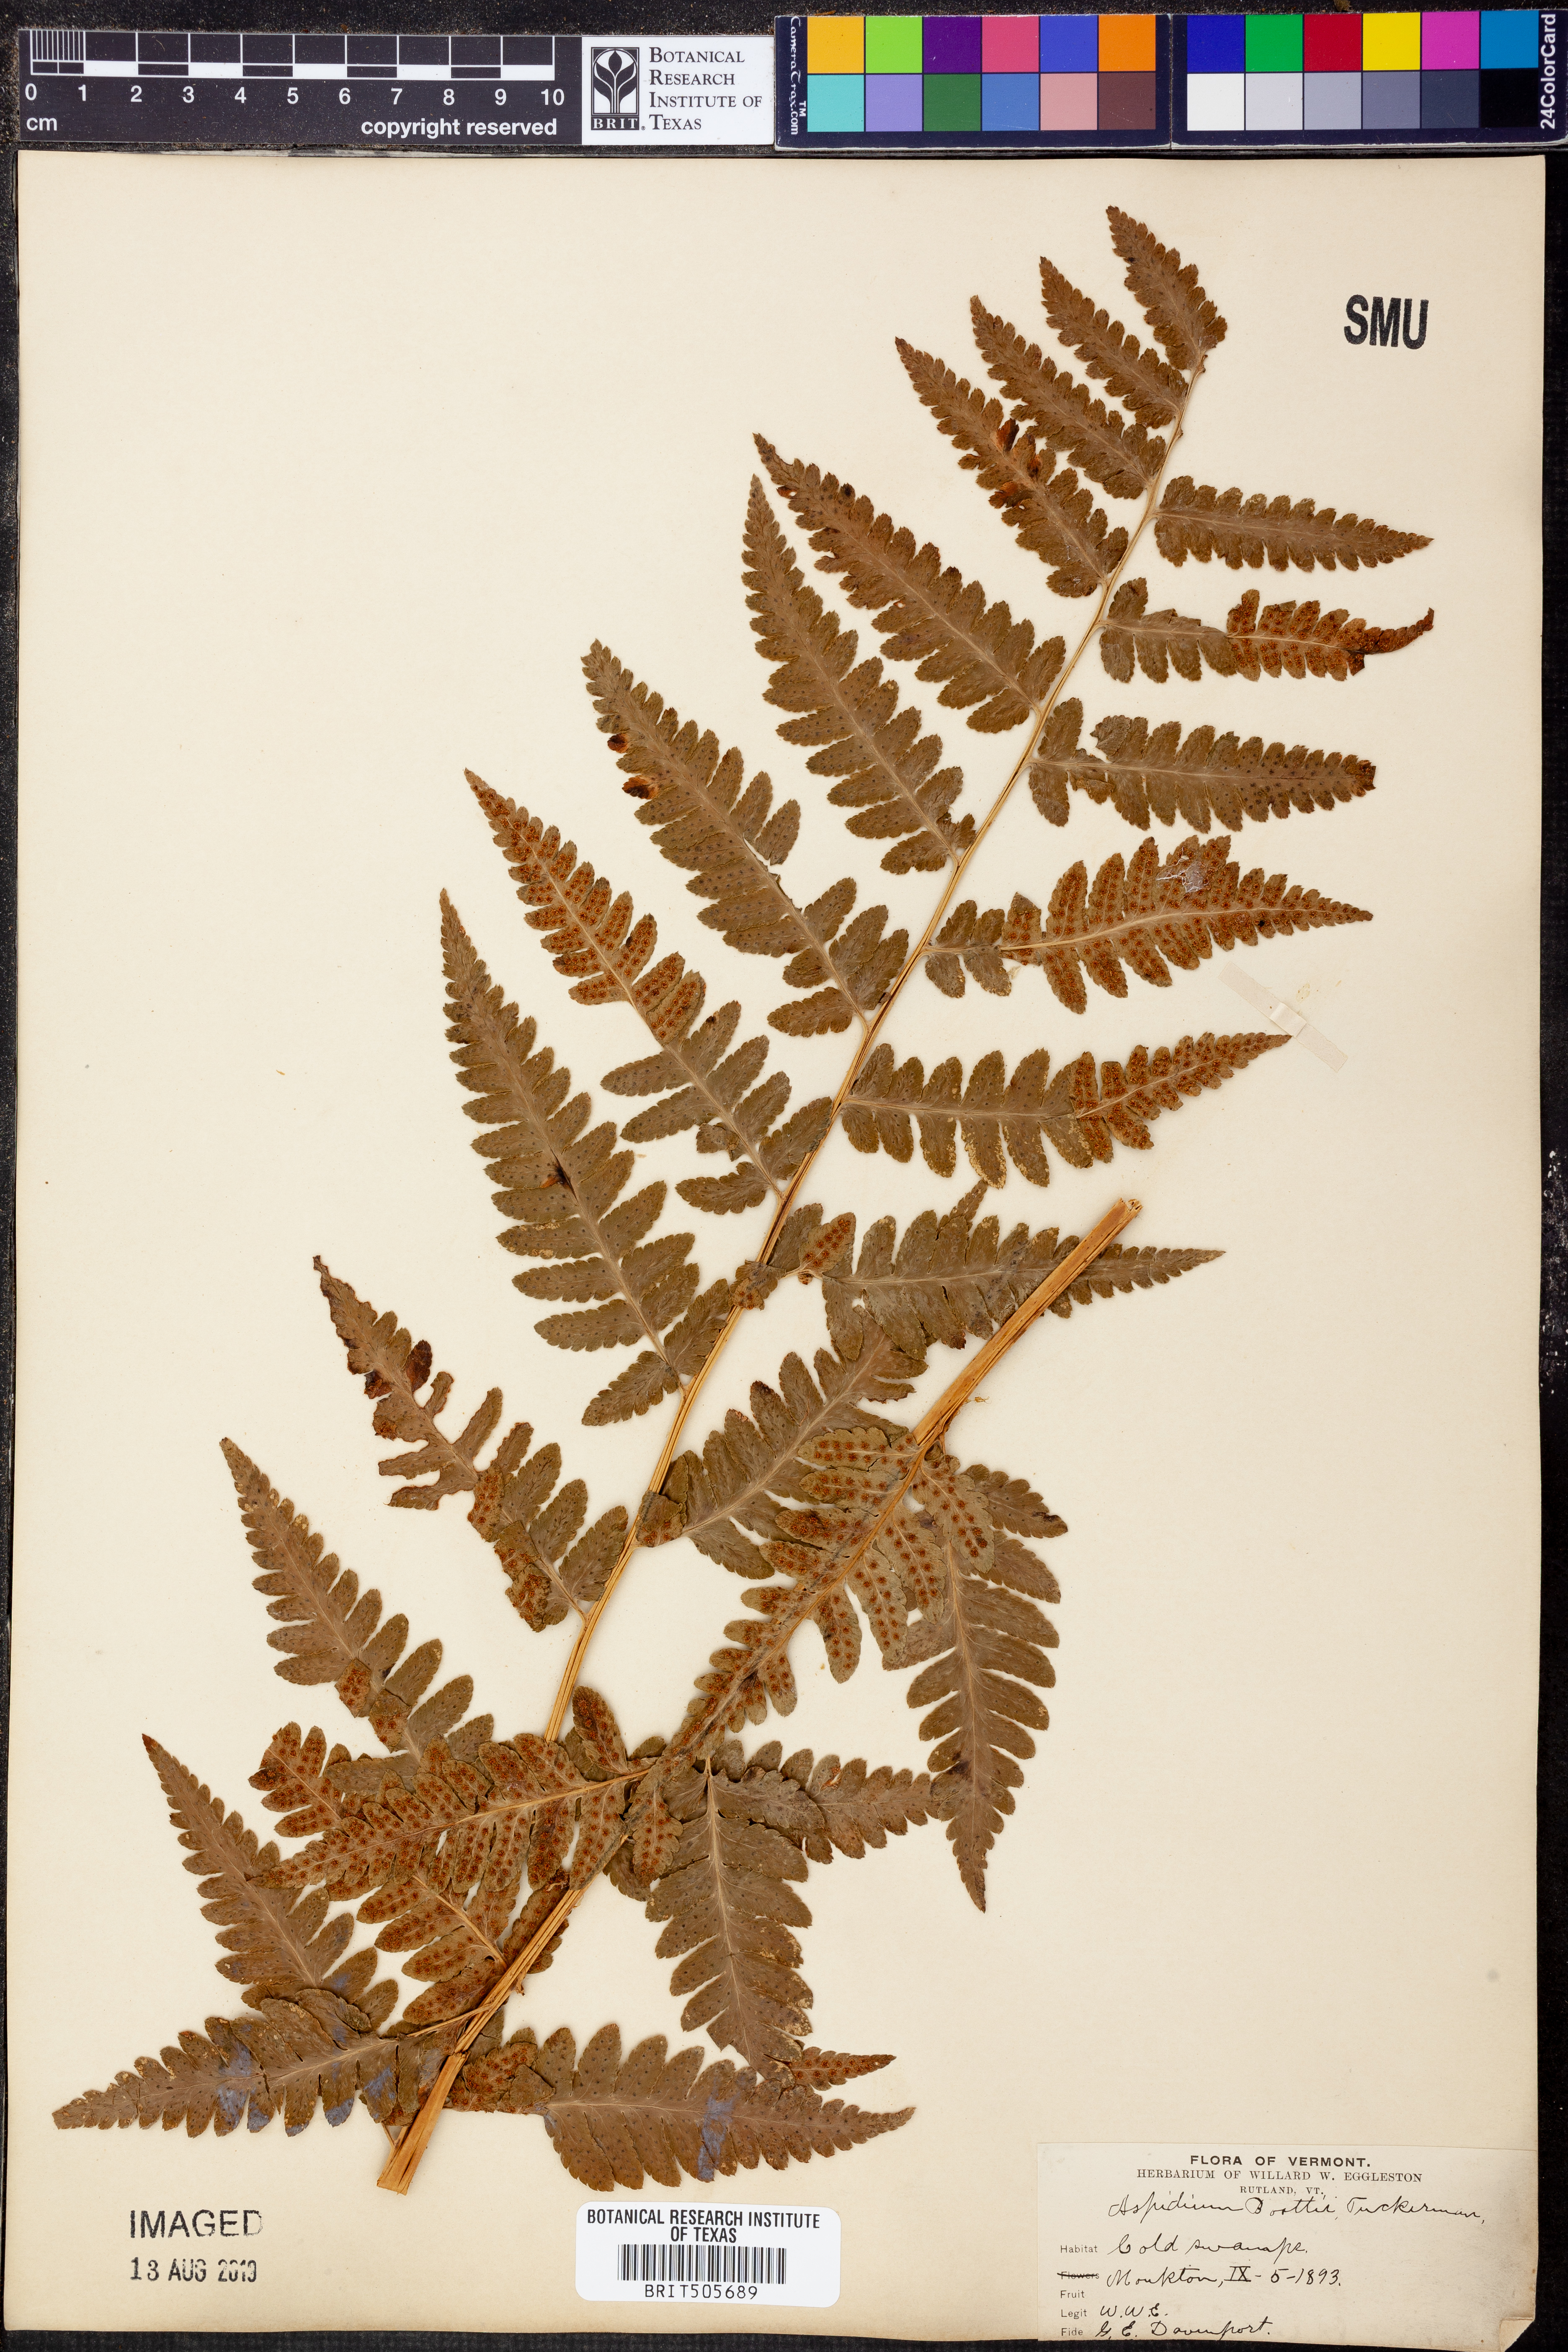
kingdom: Plantae
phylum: Tracheophyta
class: Polypodiopsida
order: Polypodiales
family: Dryopteridaceae
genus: Dryopteris
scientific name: Dryopteris boottii
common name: Boott's fern
